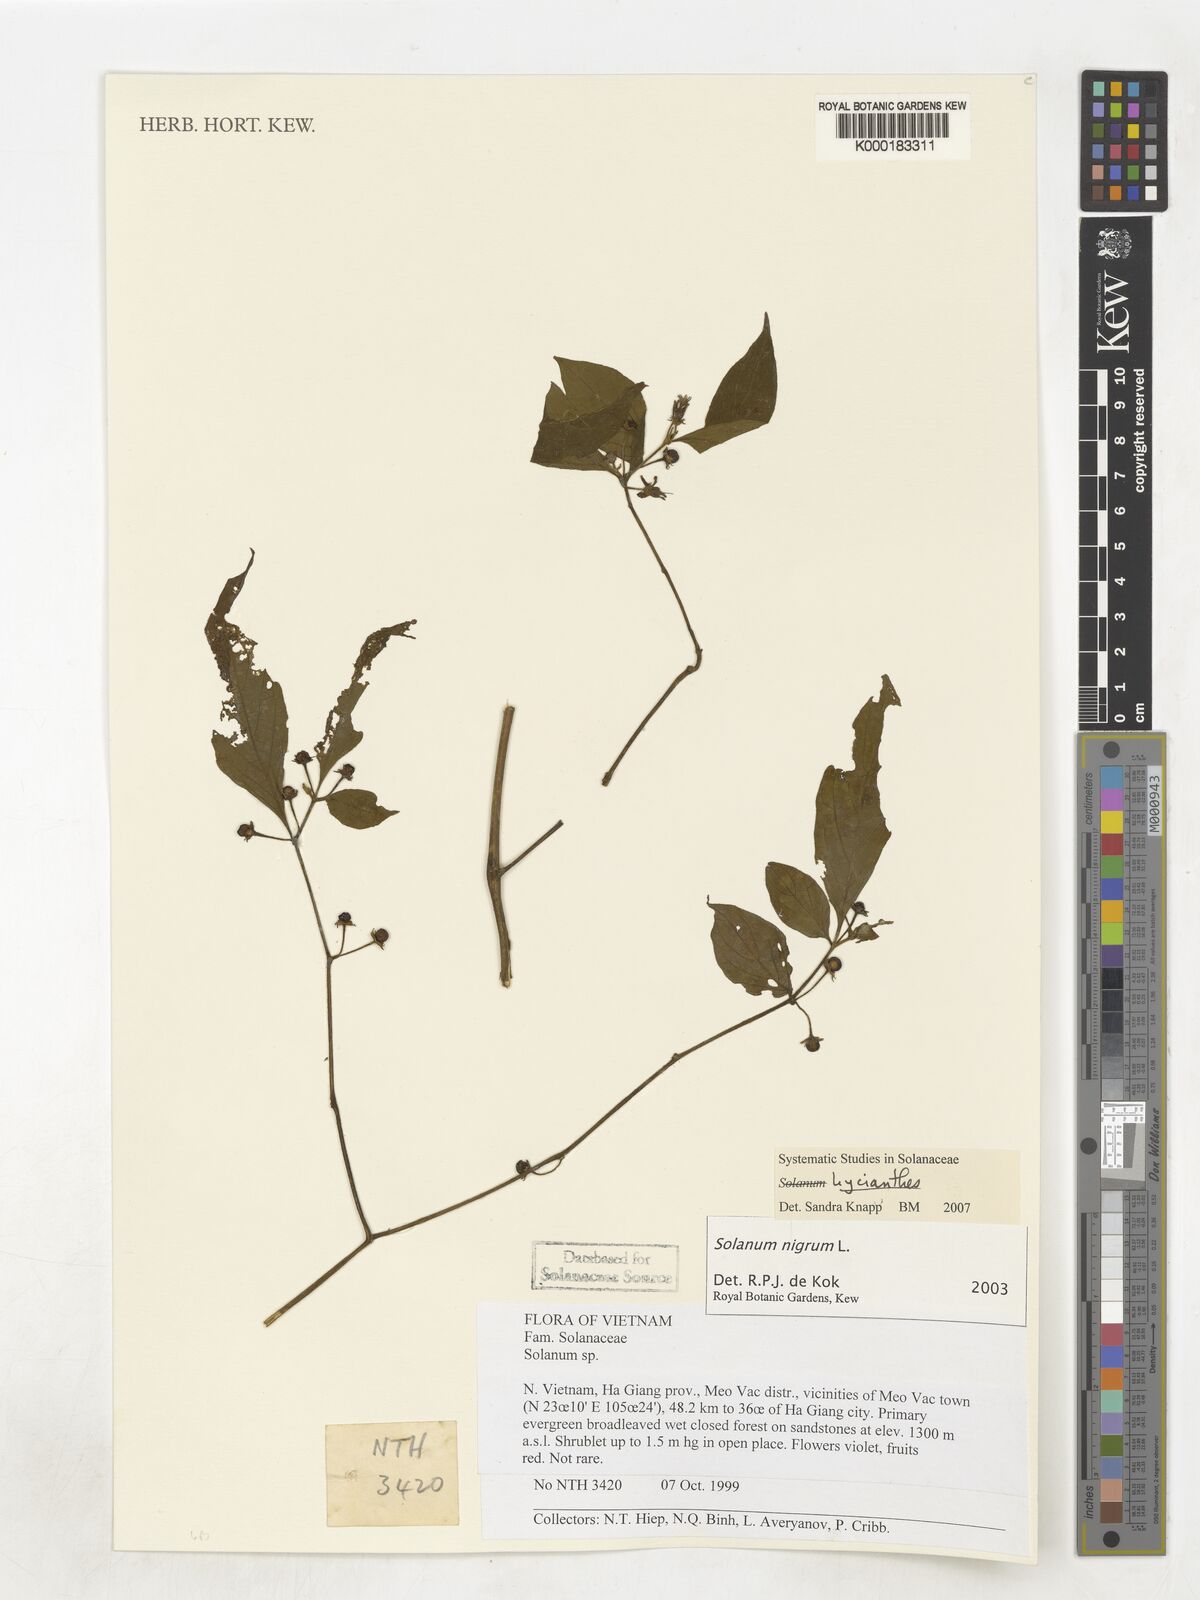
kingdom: Plantae
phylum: Tracheophyta
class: Magnoliopsida
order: Solanales
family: Solanaceae
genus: Solanum
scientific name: Solanum nigrum
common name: Black nightshade
